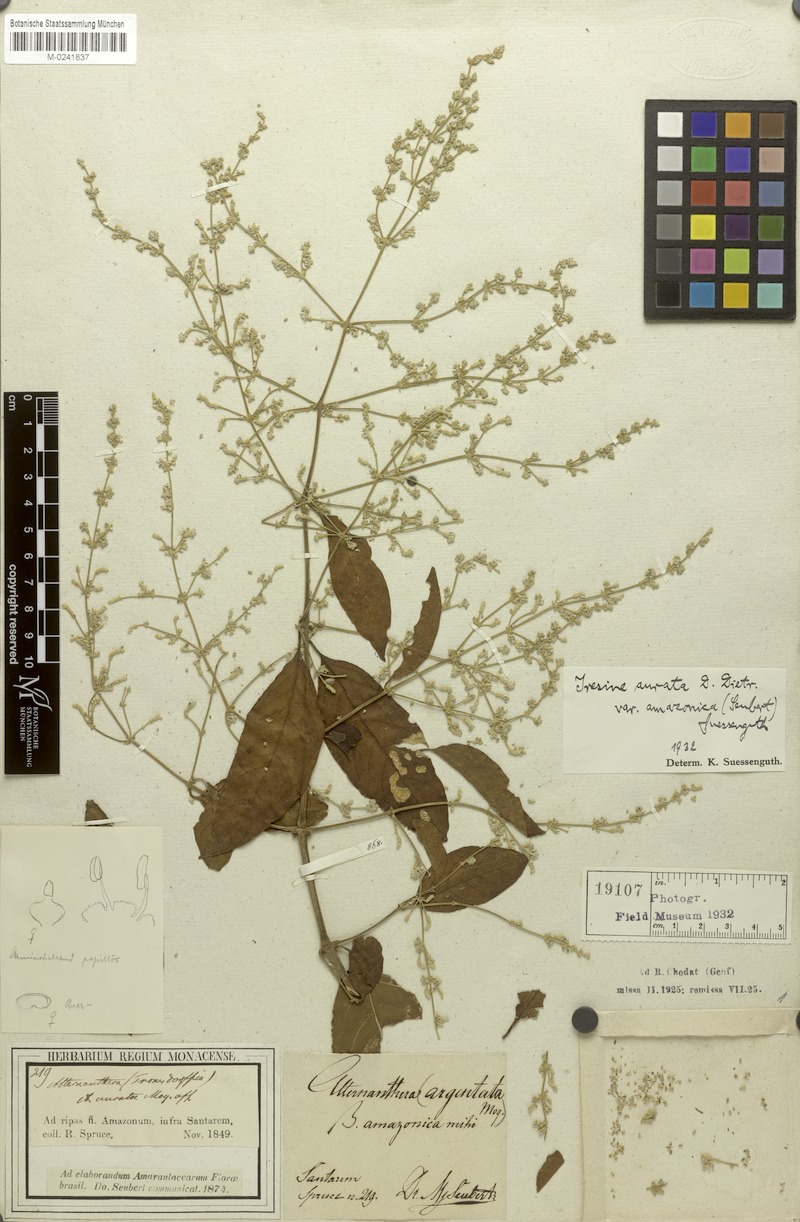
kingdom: Plantae
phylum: Tracheophyta
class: Magnoliopsida
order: Caryophyllales
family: Amaranthaceae
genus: Pedersenia
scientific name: Pedersenia argentata
